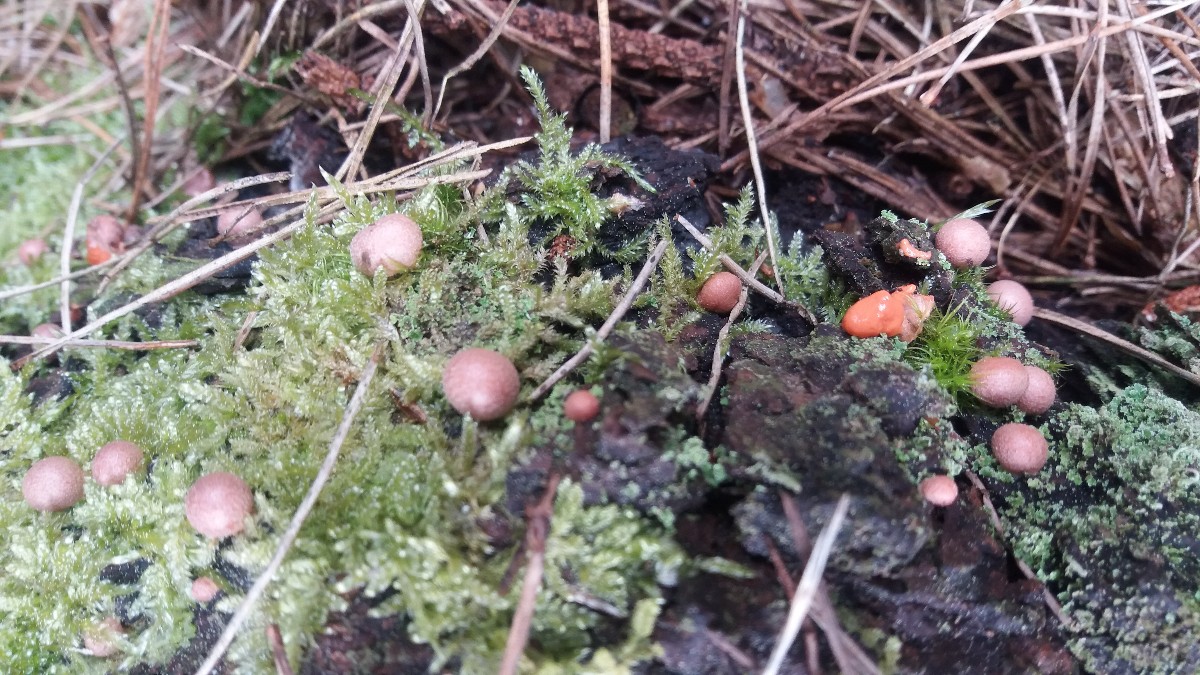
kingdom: Protozoa
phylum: Mycetozoa
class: Myxomycetes
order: Cribrariales
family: Tubiferaceae
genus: Lycogala
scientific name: Lycogala epidendrum
